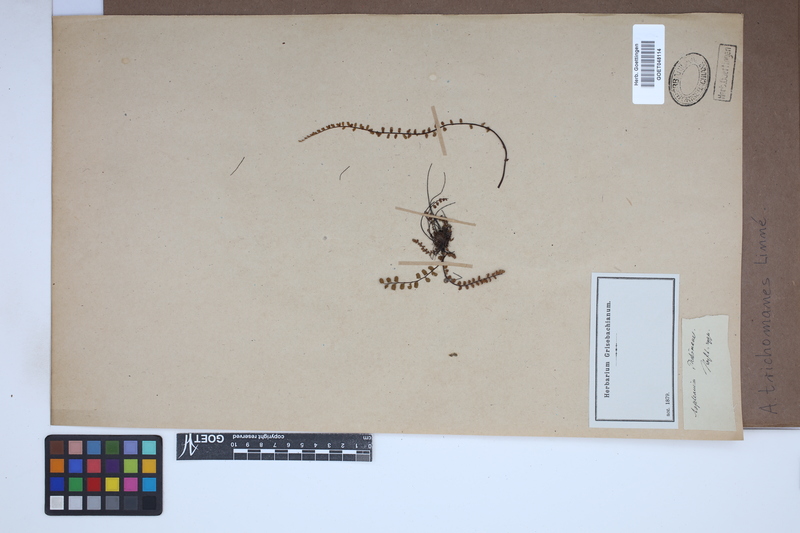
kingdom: Plantae
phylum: Tracheophyta
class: Polypodiopsida
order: Polypodiales
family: Aspleniaceae
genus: Asplenium
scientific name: Asplenium trichomanes
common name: Maidenhair spleenwort
